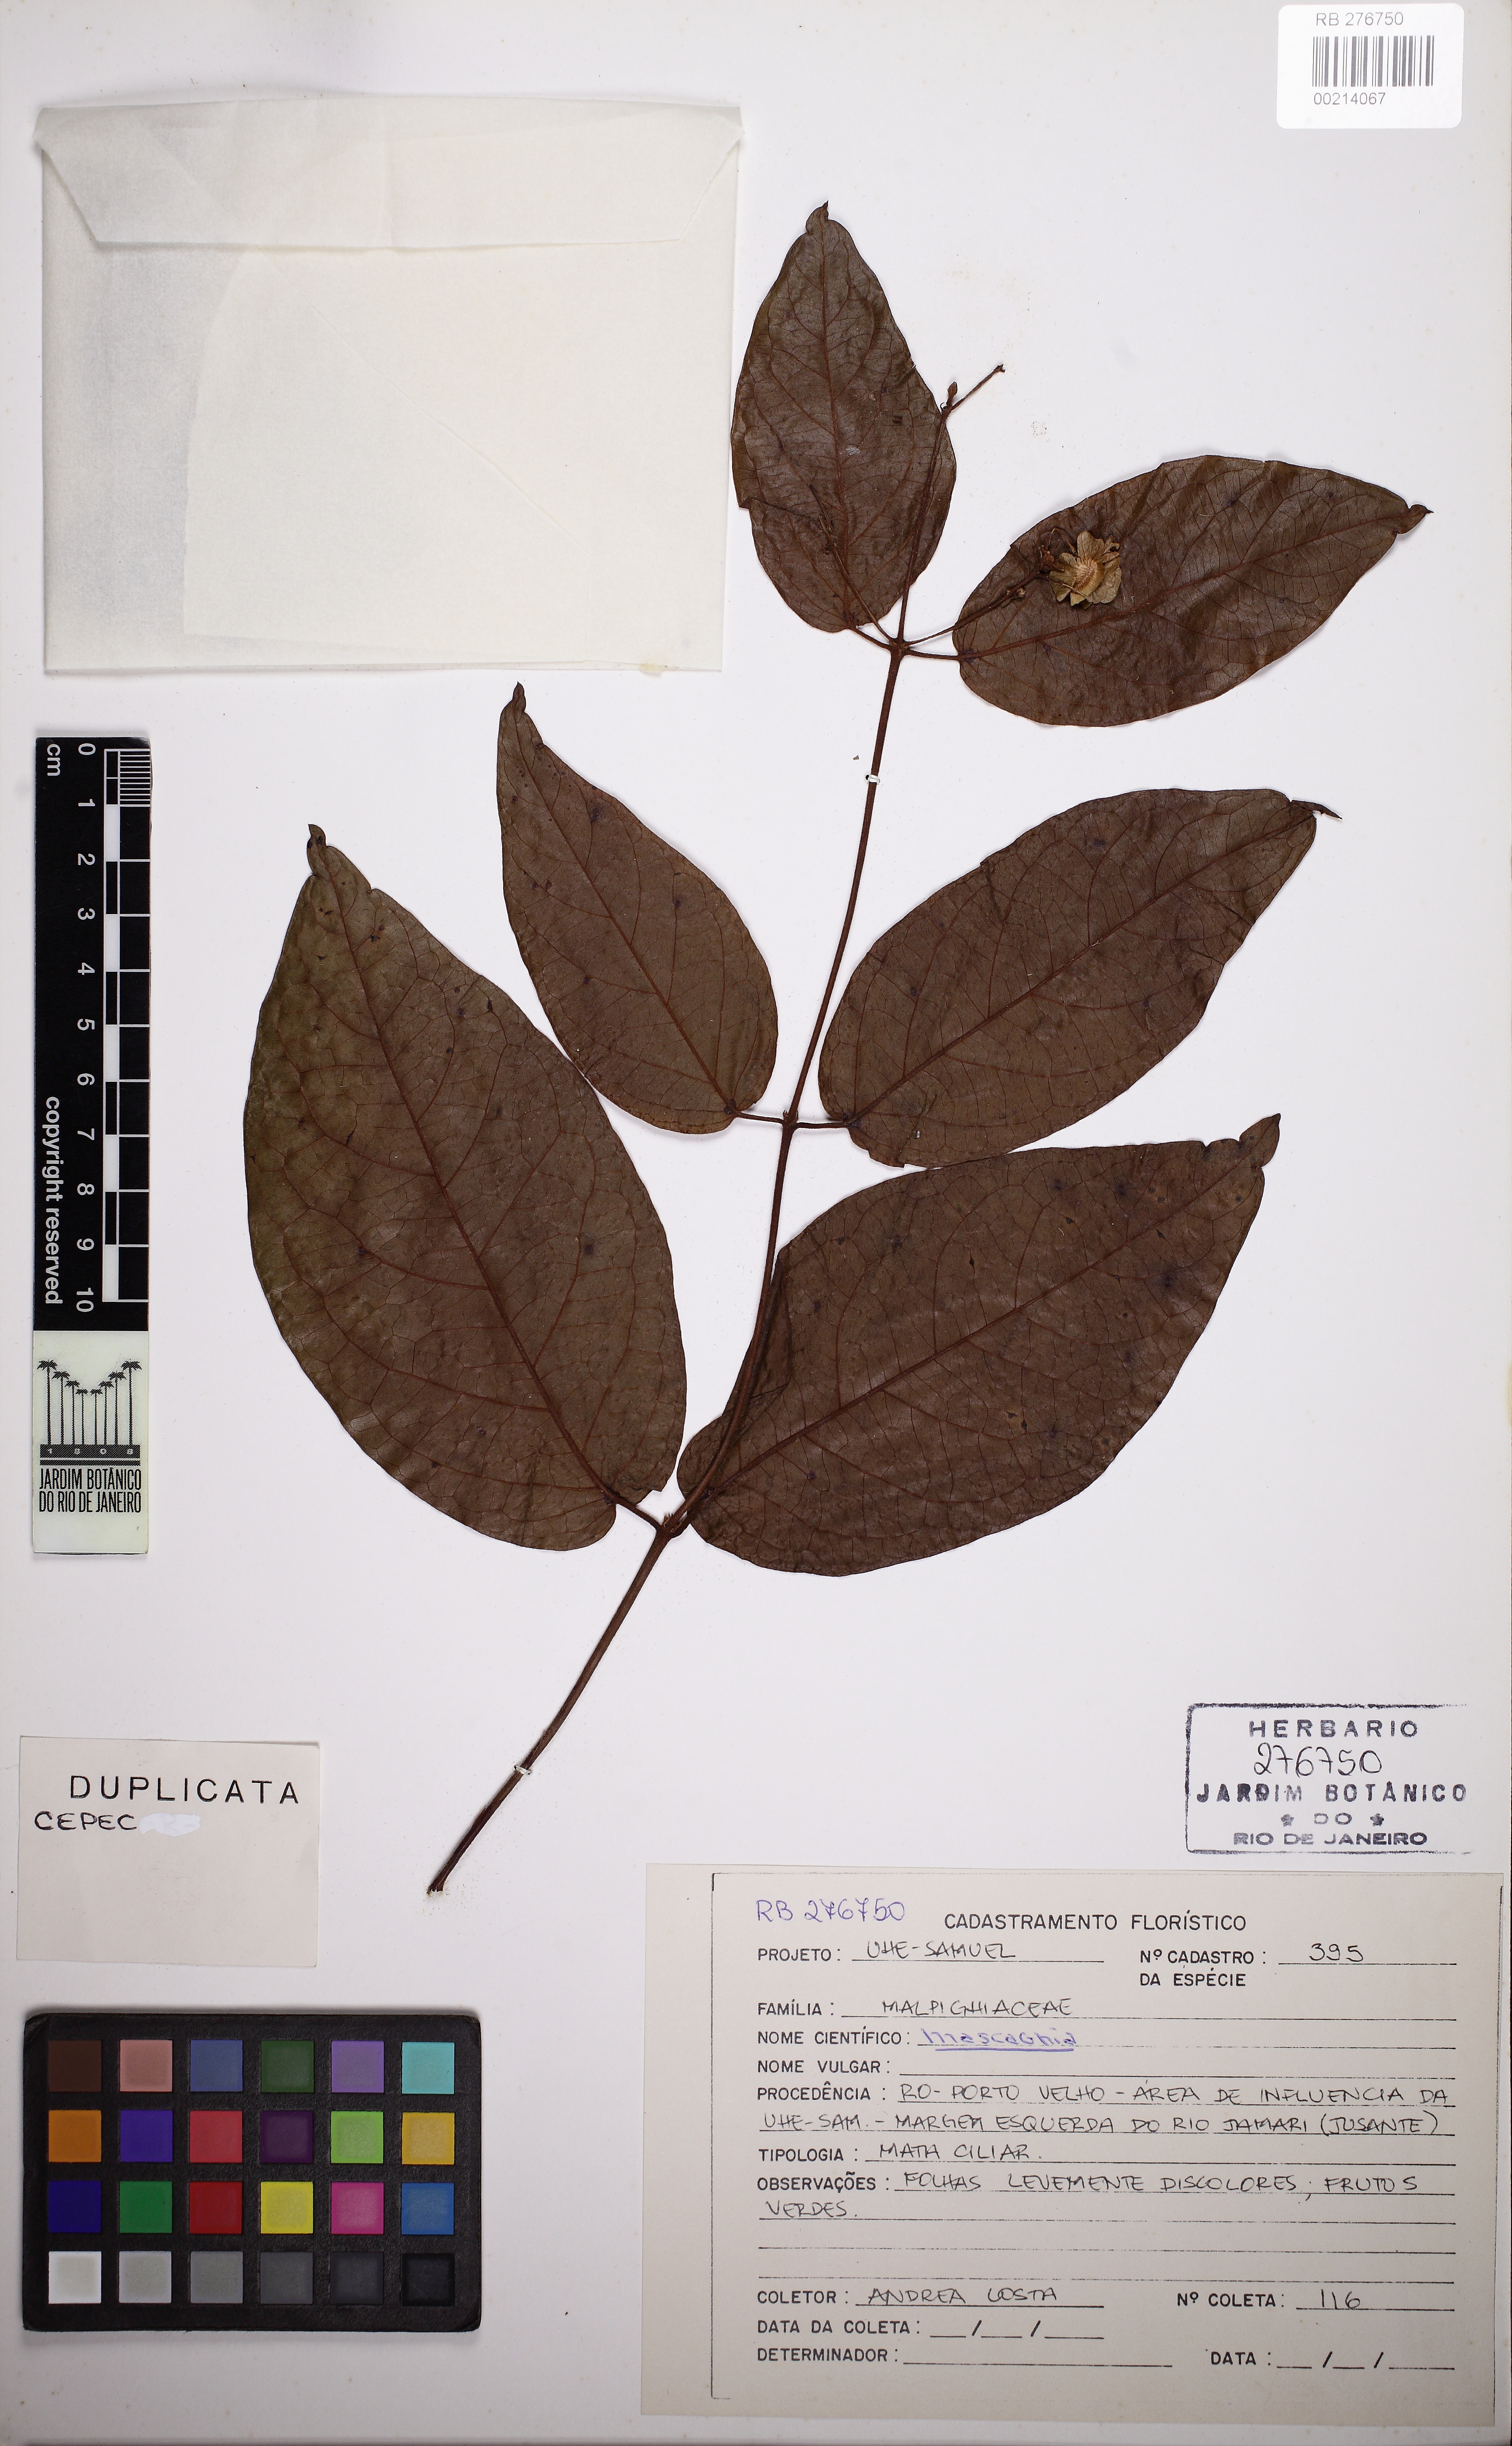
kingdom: Plantae
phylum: Tracheophyta
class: Magnoliopsida
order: Malpighiales
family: Malpighiaceae
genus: Mascagnia
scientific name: Mascagnia
